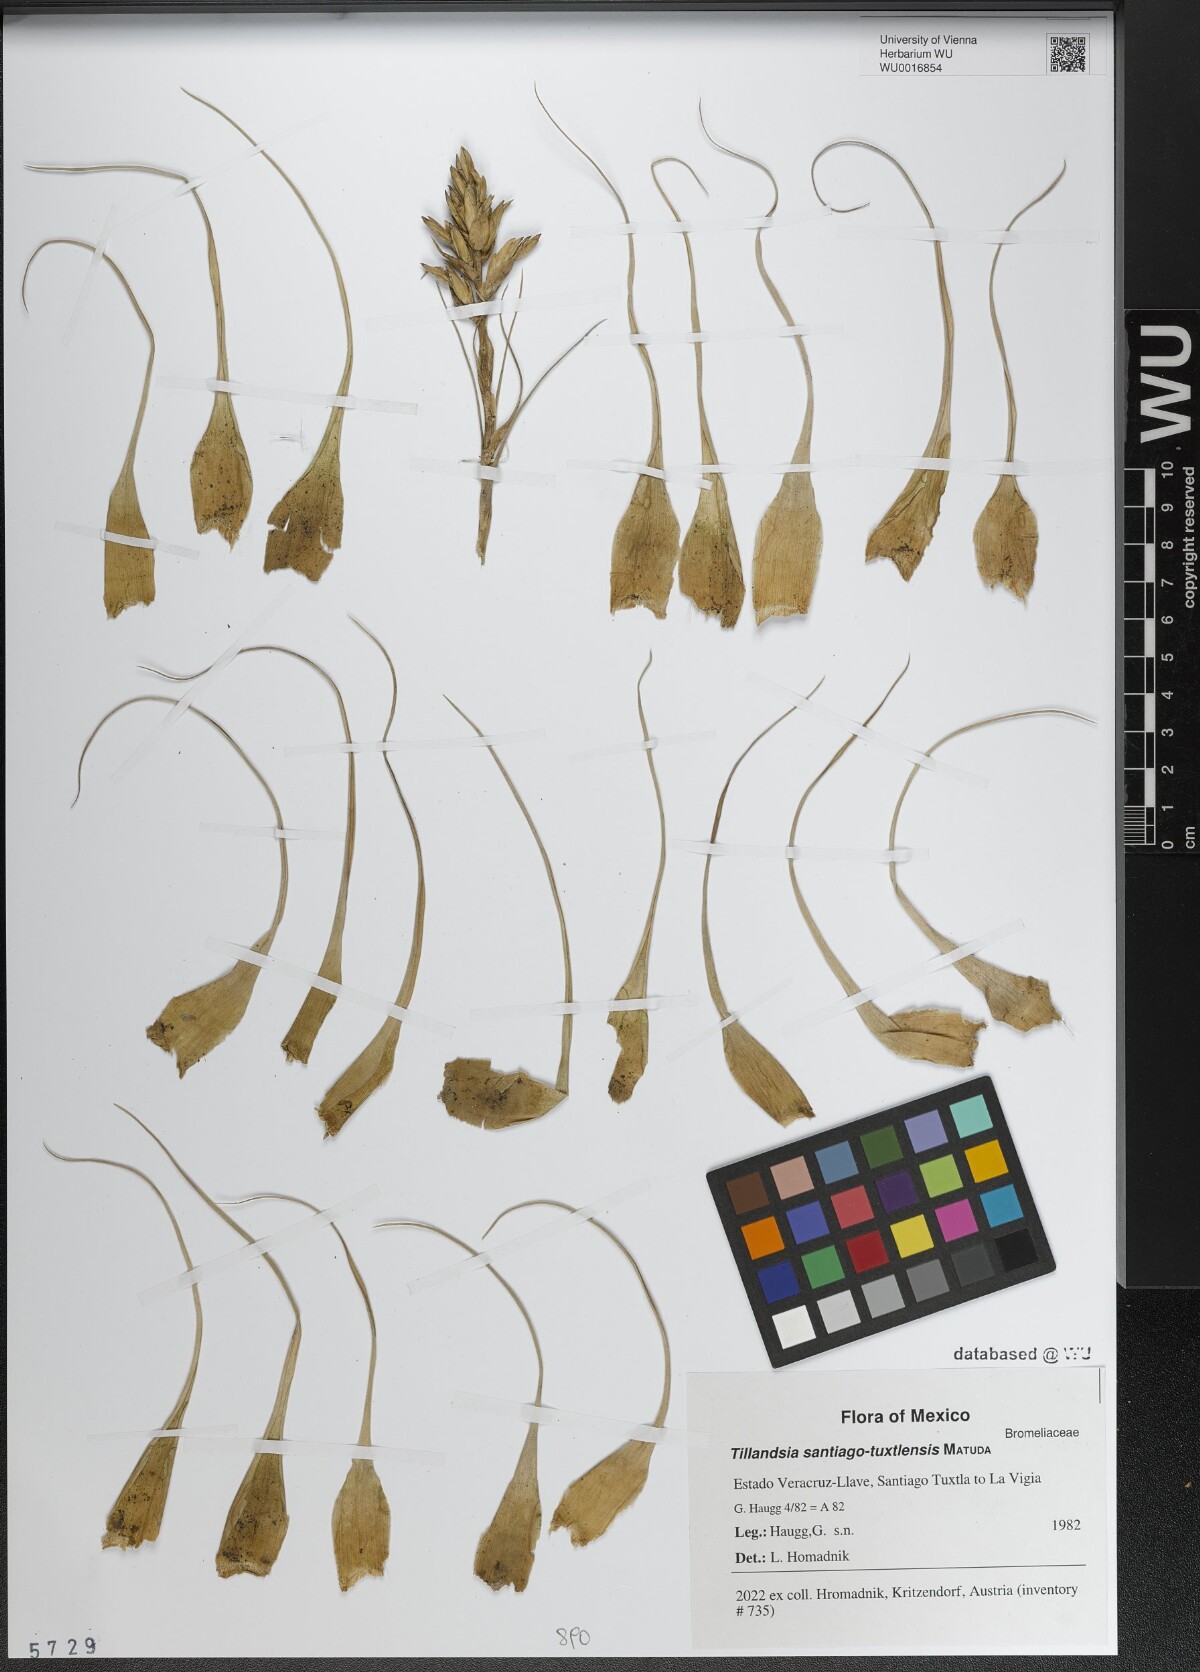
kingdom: Plantae
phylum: Tracheophyta
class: Liliopsida
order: Poales
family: Bromeliaceae
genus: Tillandsia
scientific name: Tillandsia chlorophylla
